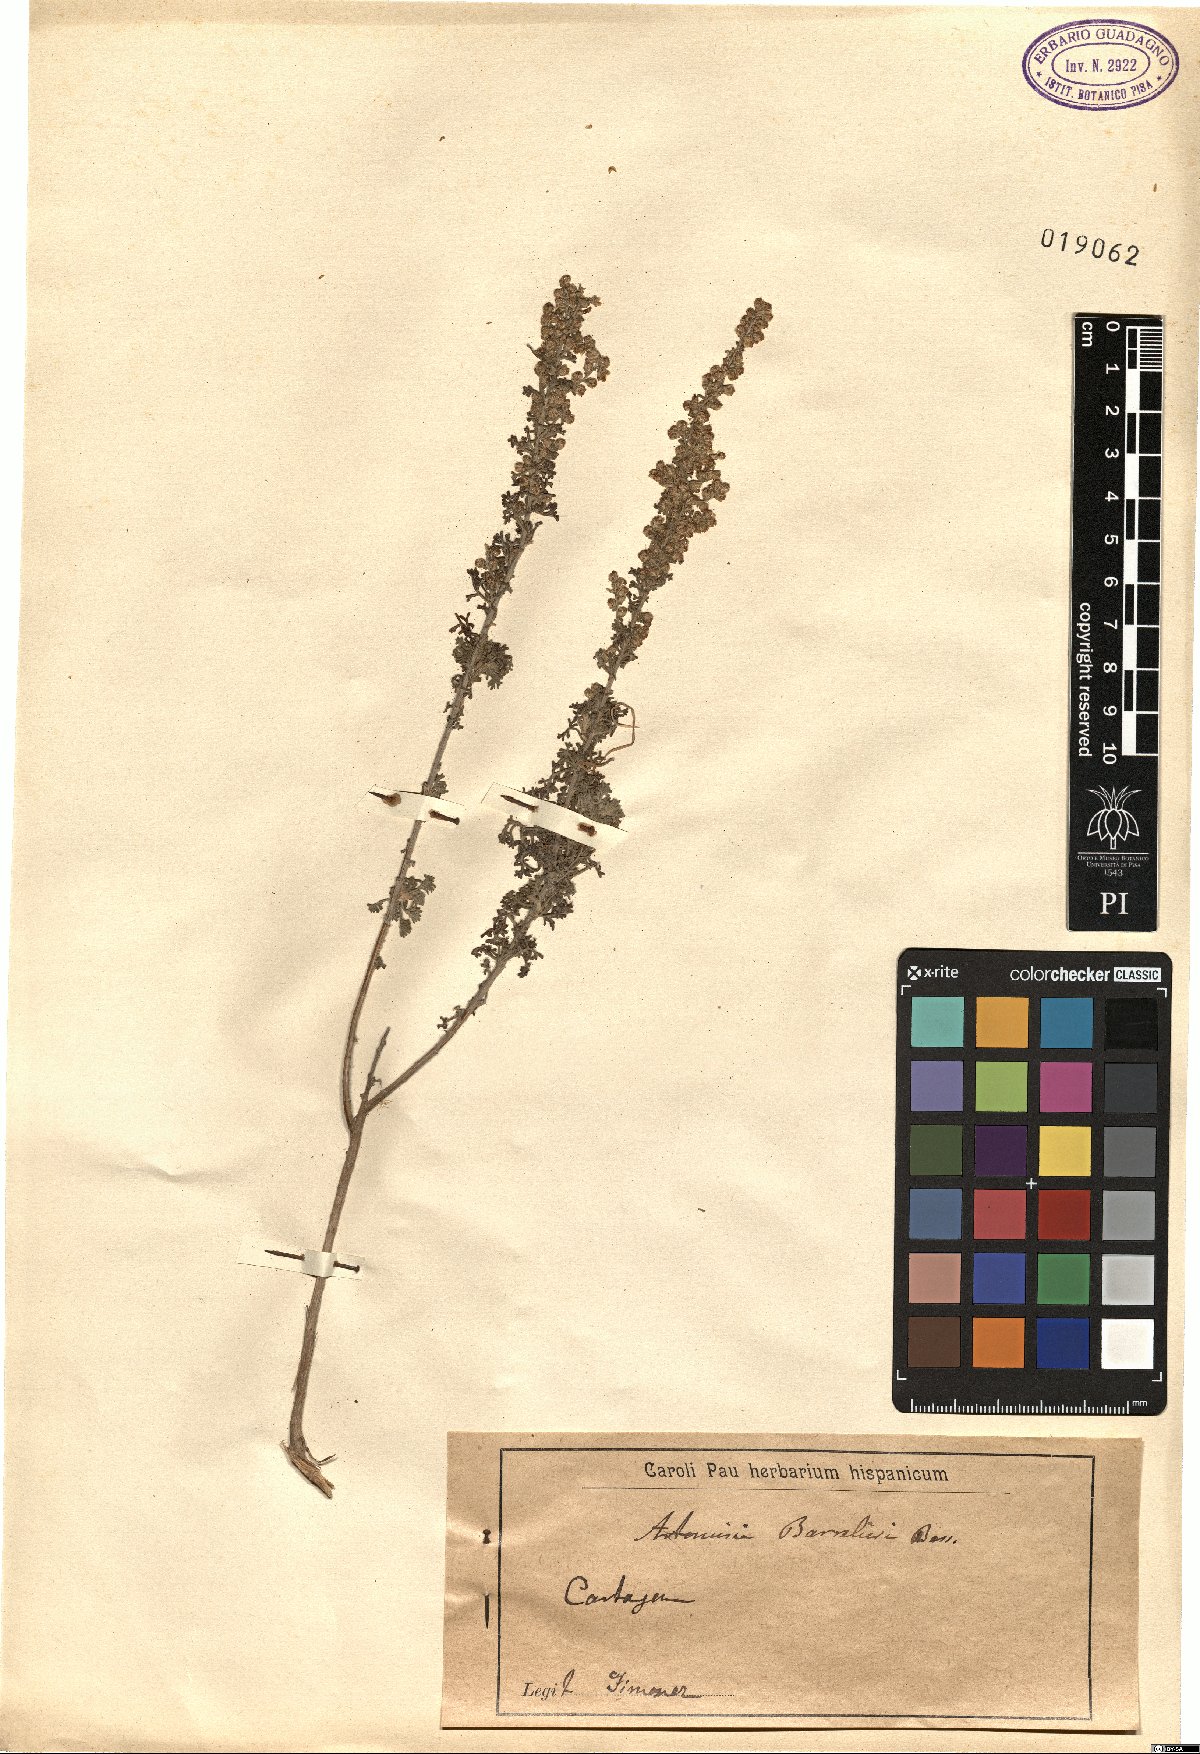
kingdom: Plantae
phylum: Tracheophyta
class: Magnoliopsida
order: Asterales
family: Asteraceae
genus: Artemisia
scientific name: Artemisia barrelieri
